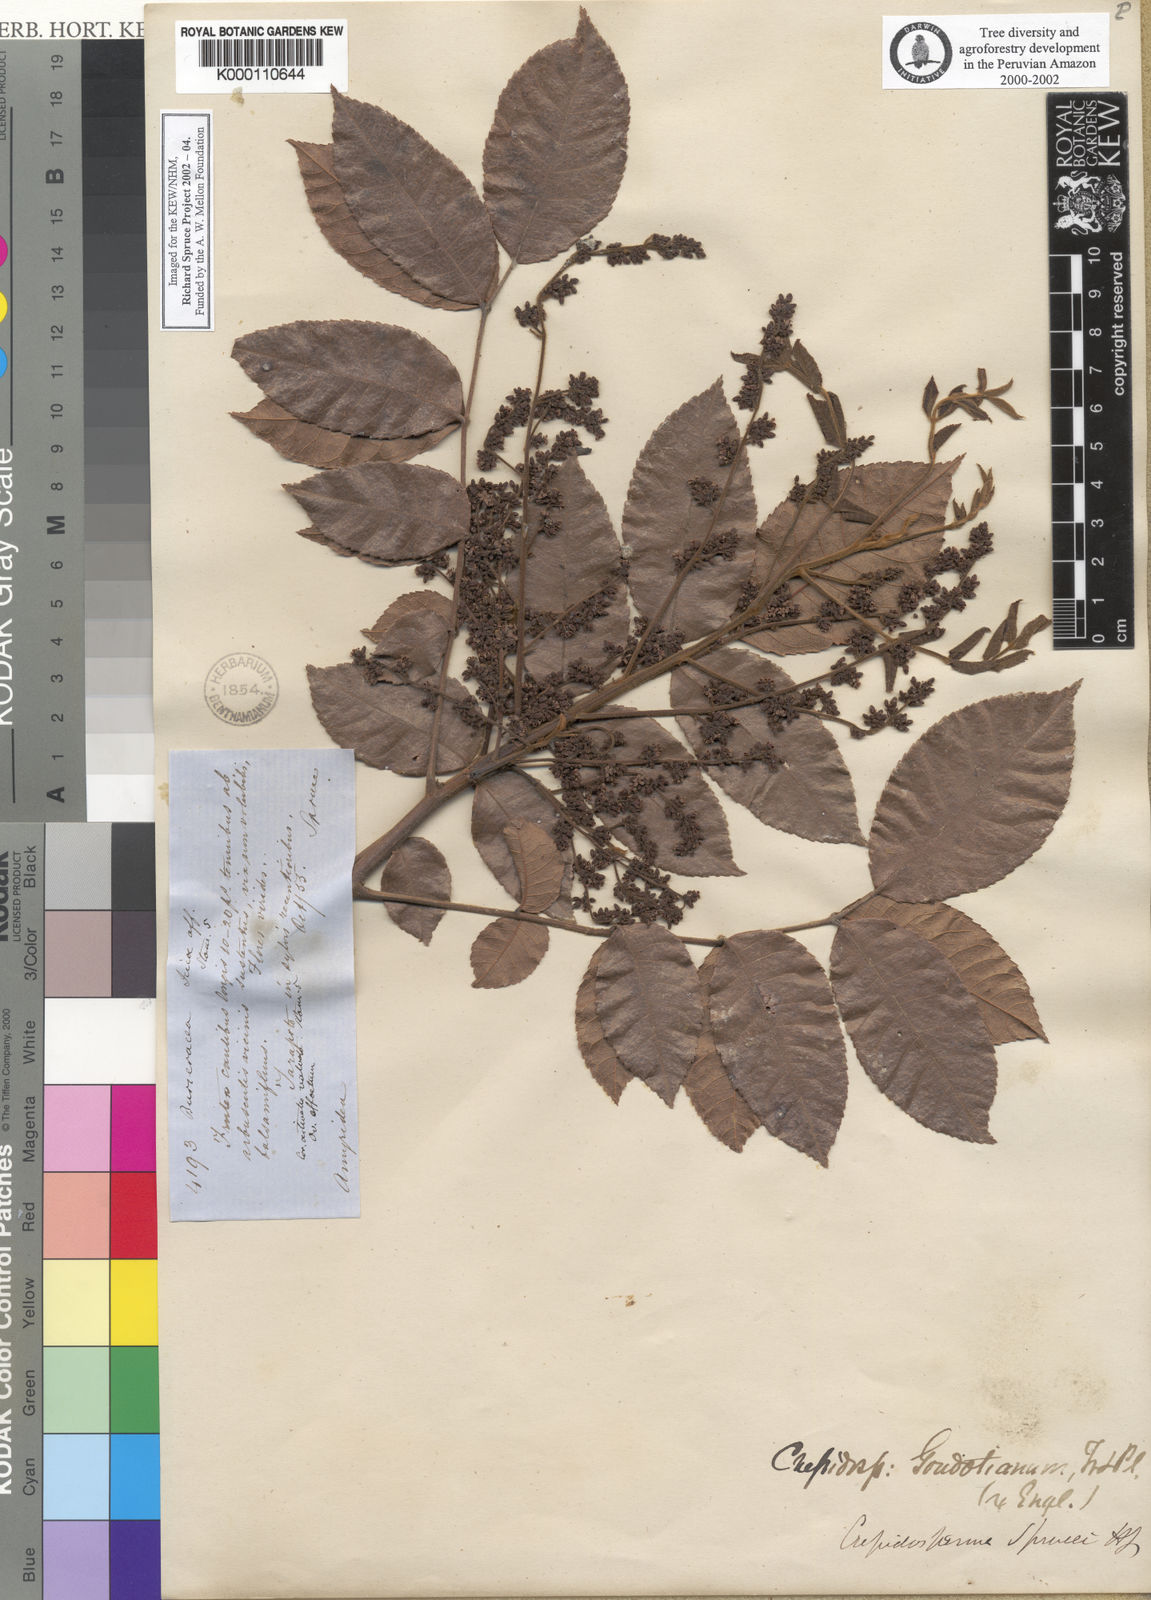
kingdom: Plantae
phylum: Tracheophyta
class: Magnoliopsida
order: Sapindales
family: Burseraceae
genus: Crepidospermum
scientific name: Crepidospermum goudotianum
